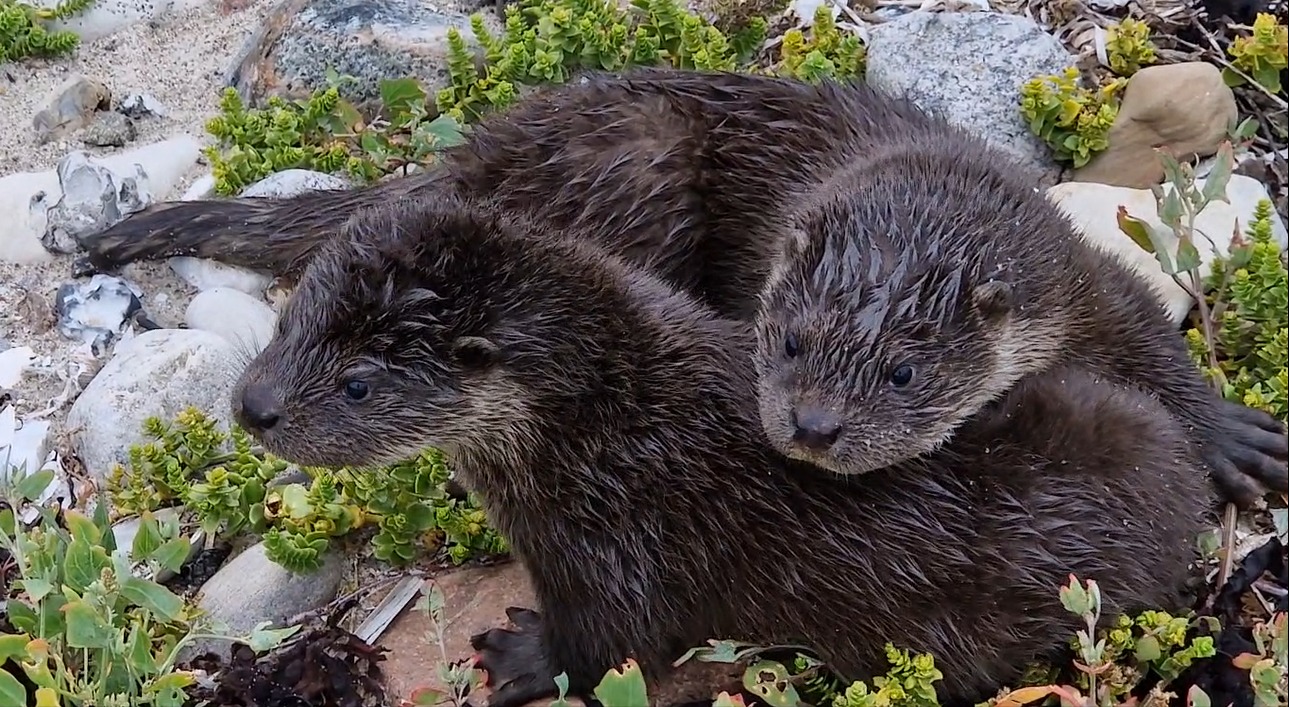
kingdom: Animalia
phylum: Chordata
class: Mammalia
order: Carnivora
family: Mustelidae
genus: Lutra
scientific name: Lutra lutra
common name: Odder
